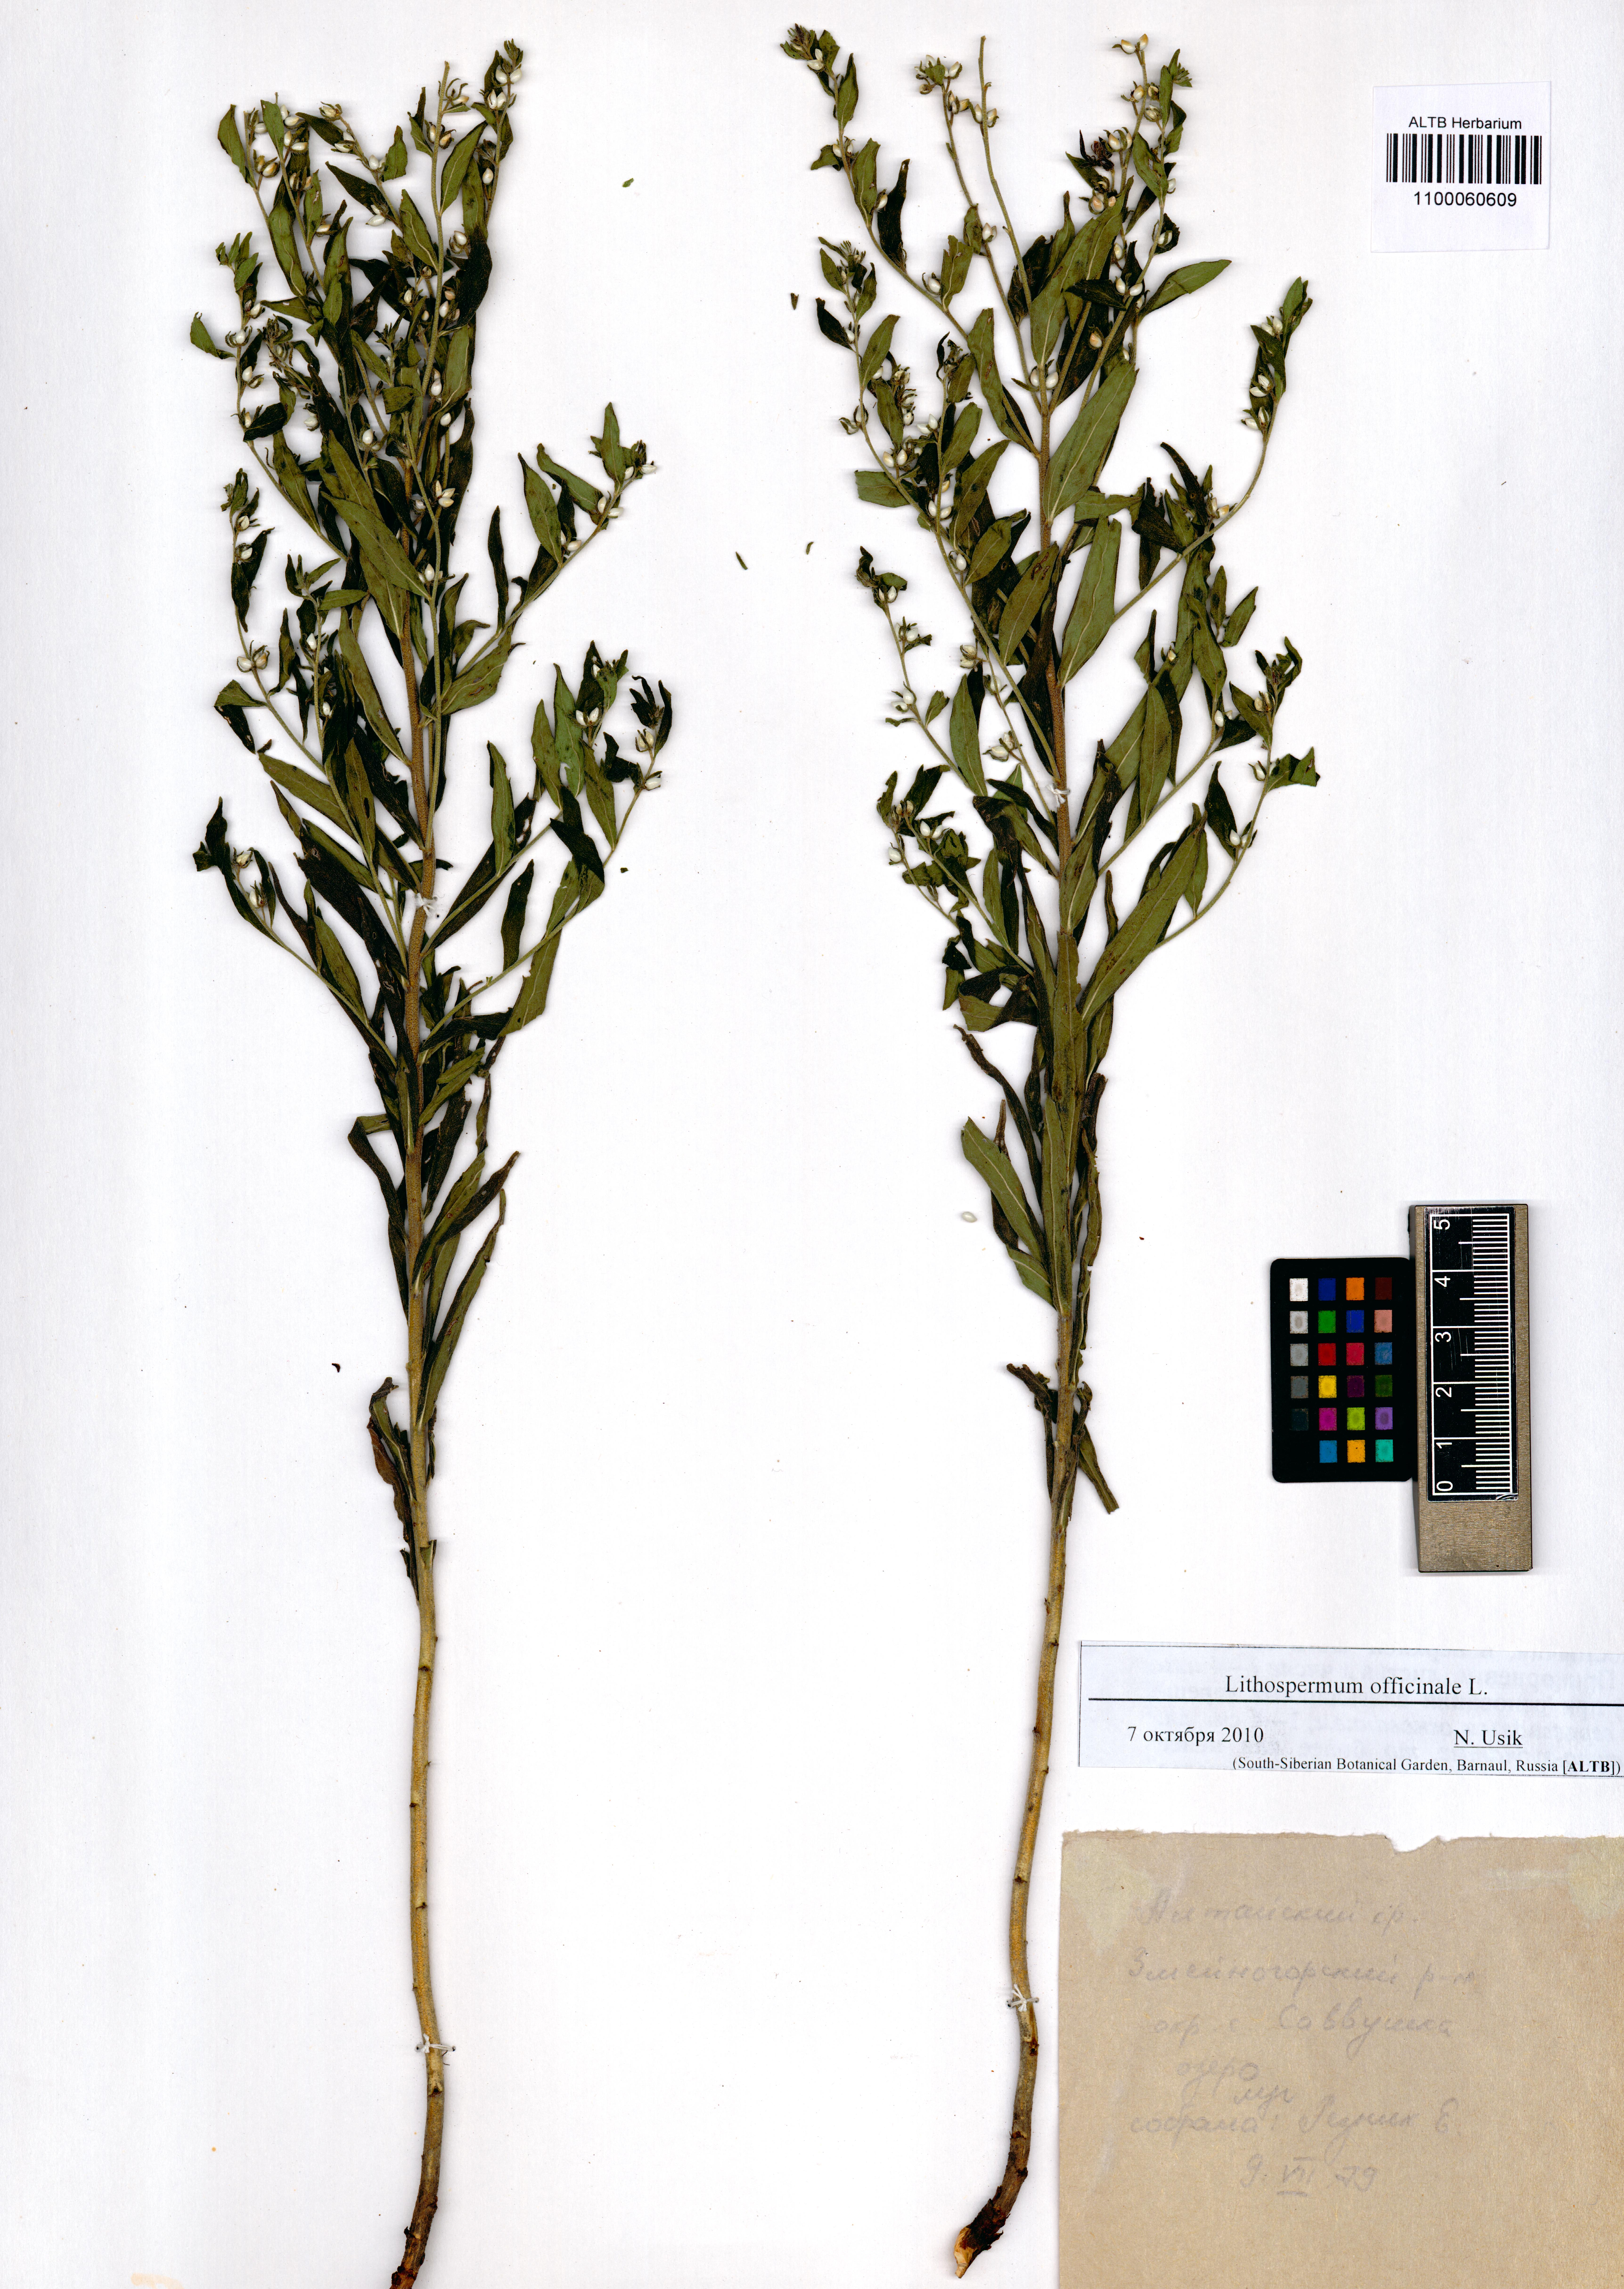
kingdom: Plantae
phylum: Tracheophyta
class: Magnoliopsida
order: Boraginales
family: Boraginaceae
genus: Lithospermum
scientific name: Lithospermum officinale
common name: Common gromwell
